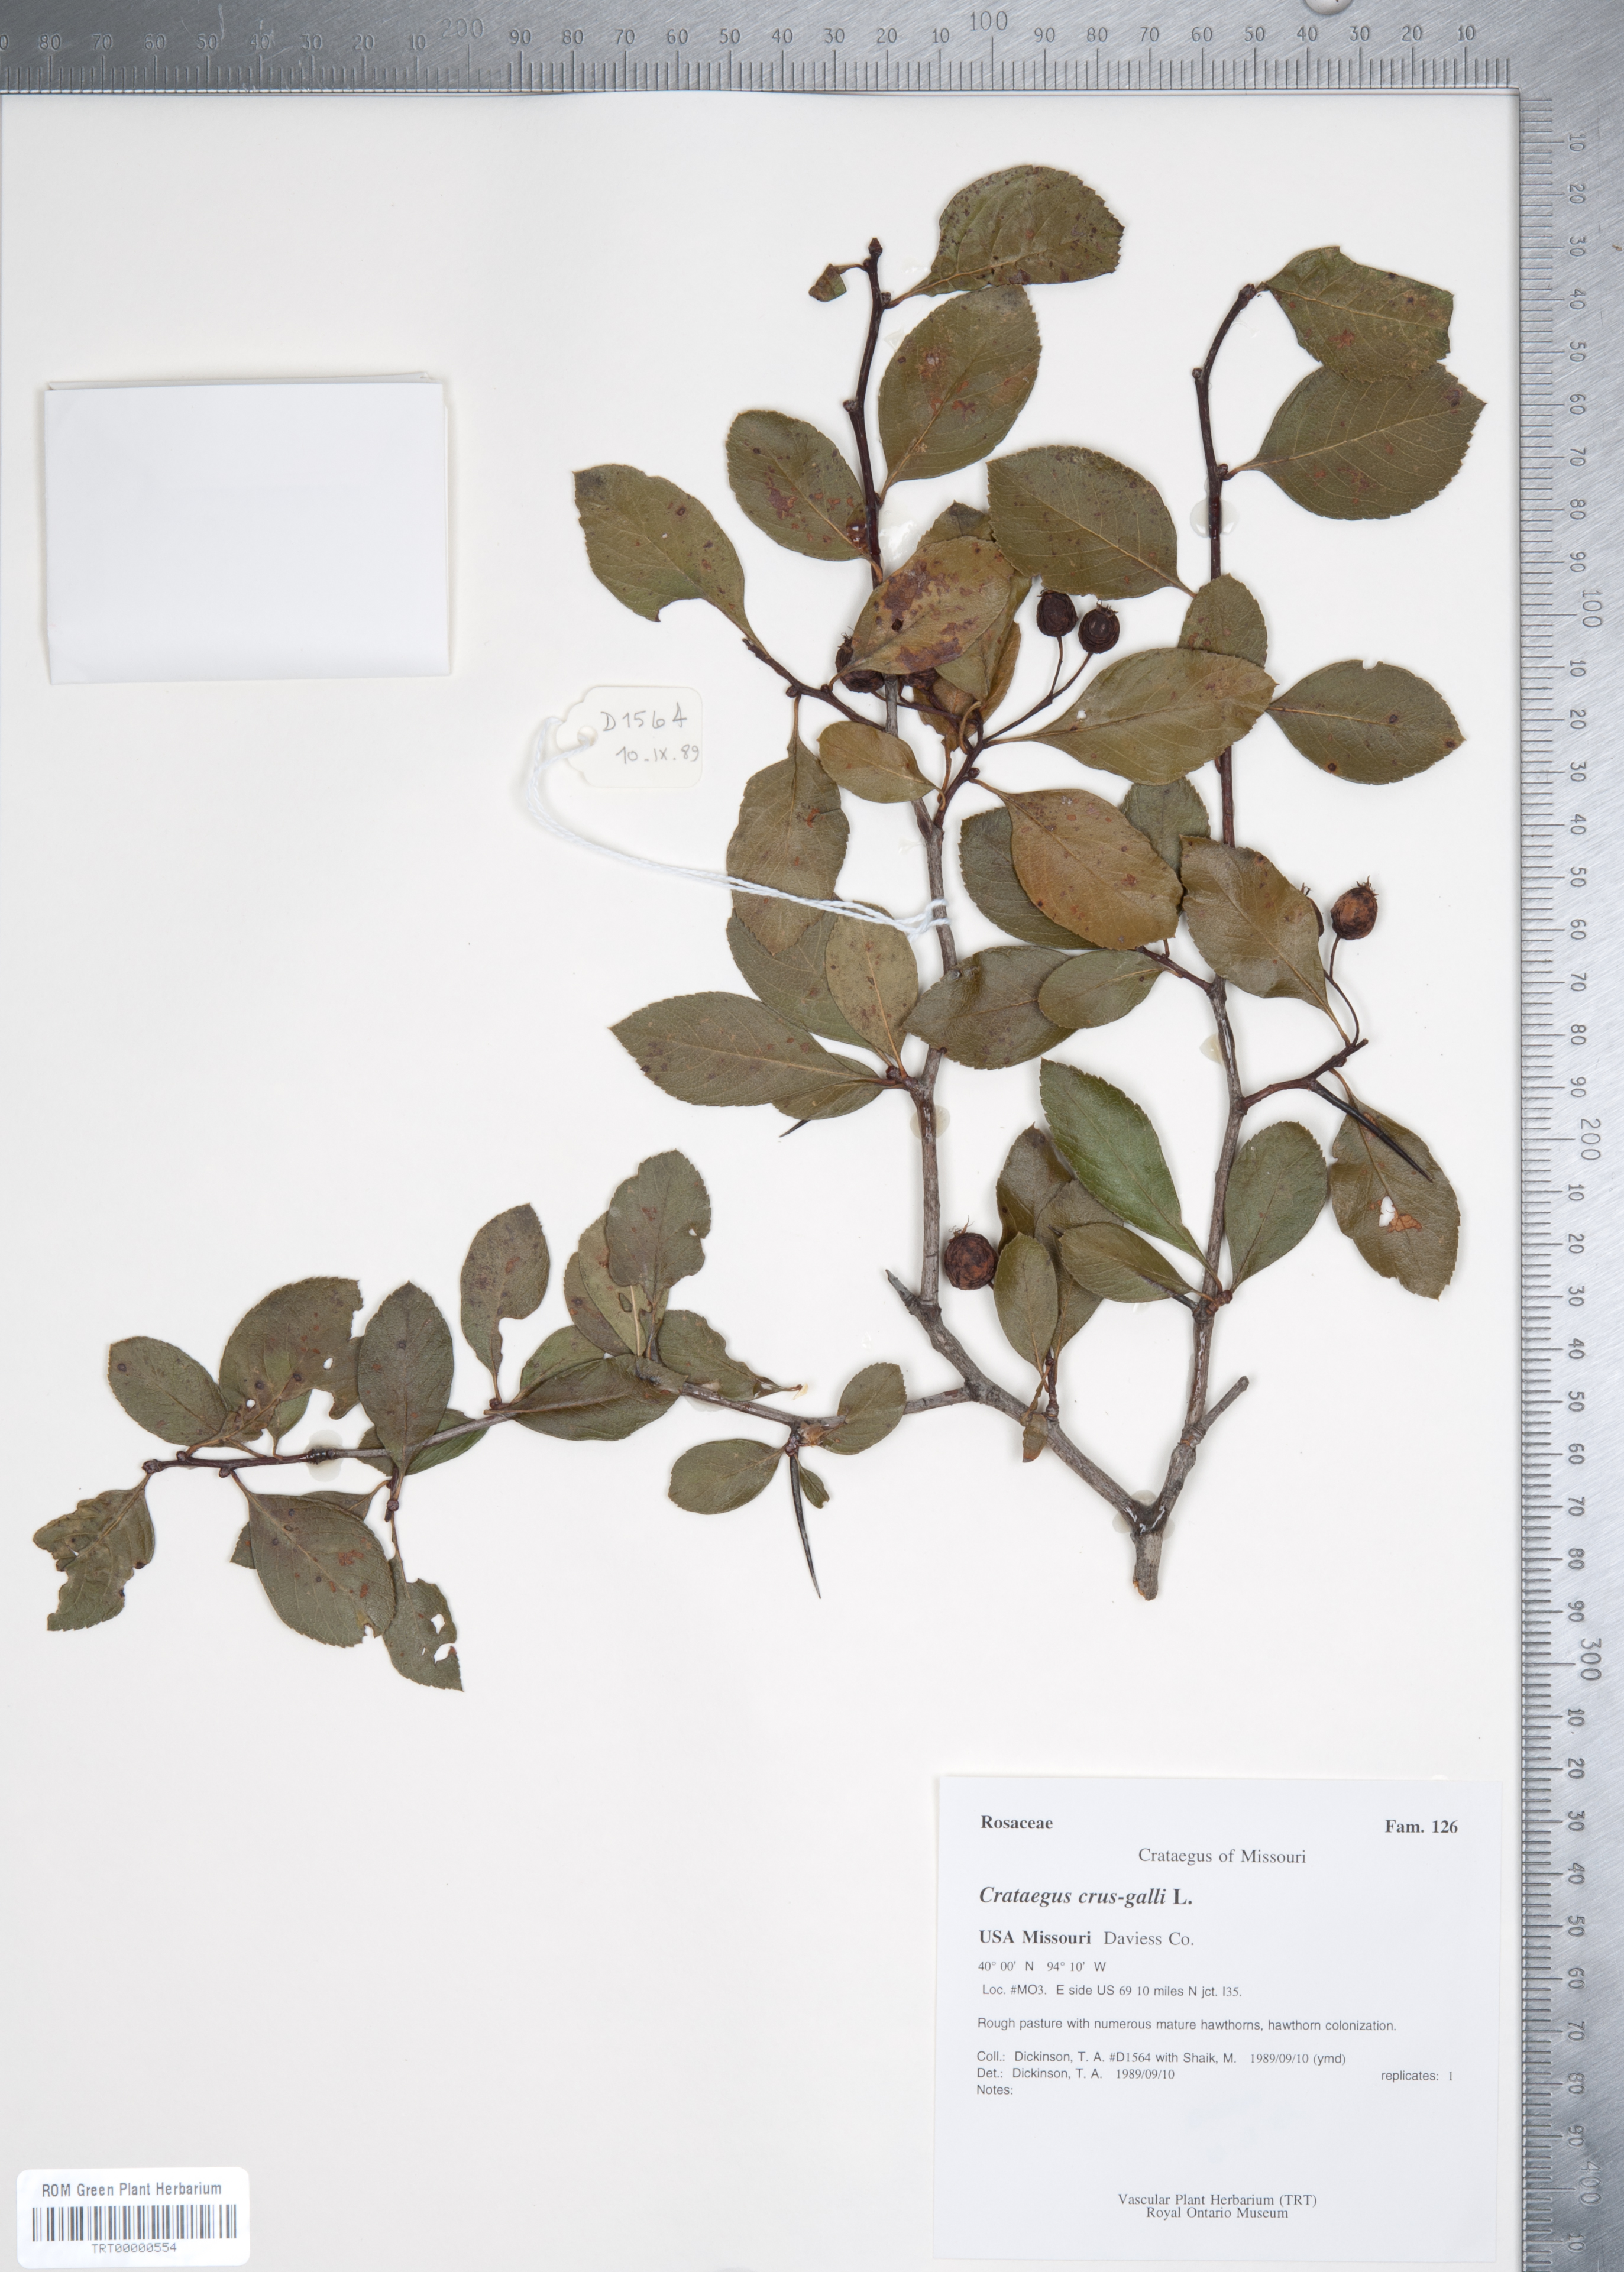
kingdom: Plantae
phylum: Tracheophyta
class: Magnoliopsida
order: Rosales
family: Rosaceae
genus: Crataegus
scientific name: Crataegus crus-galli
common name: Cockspurthorn
